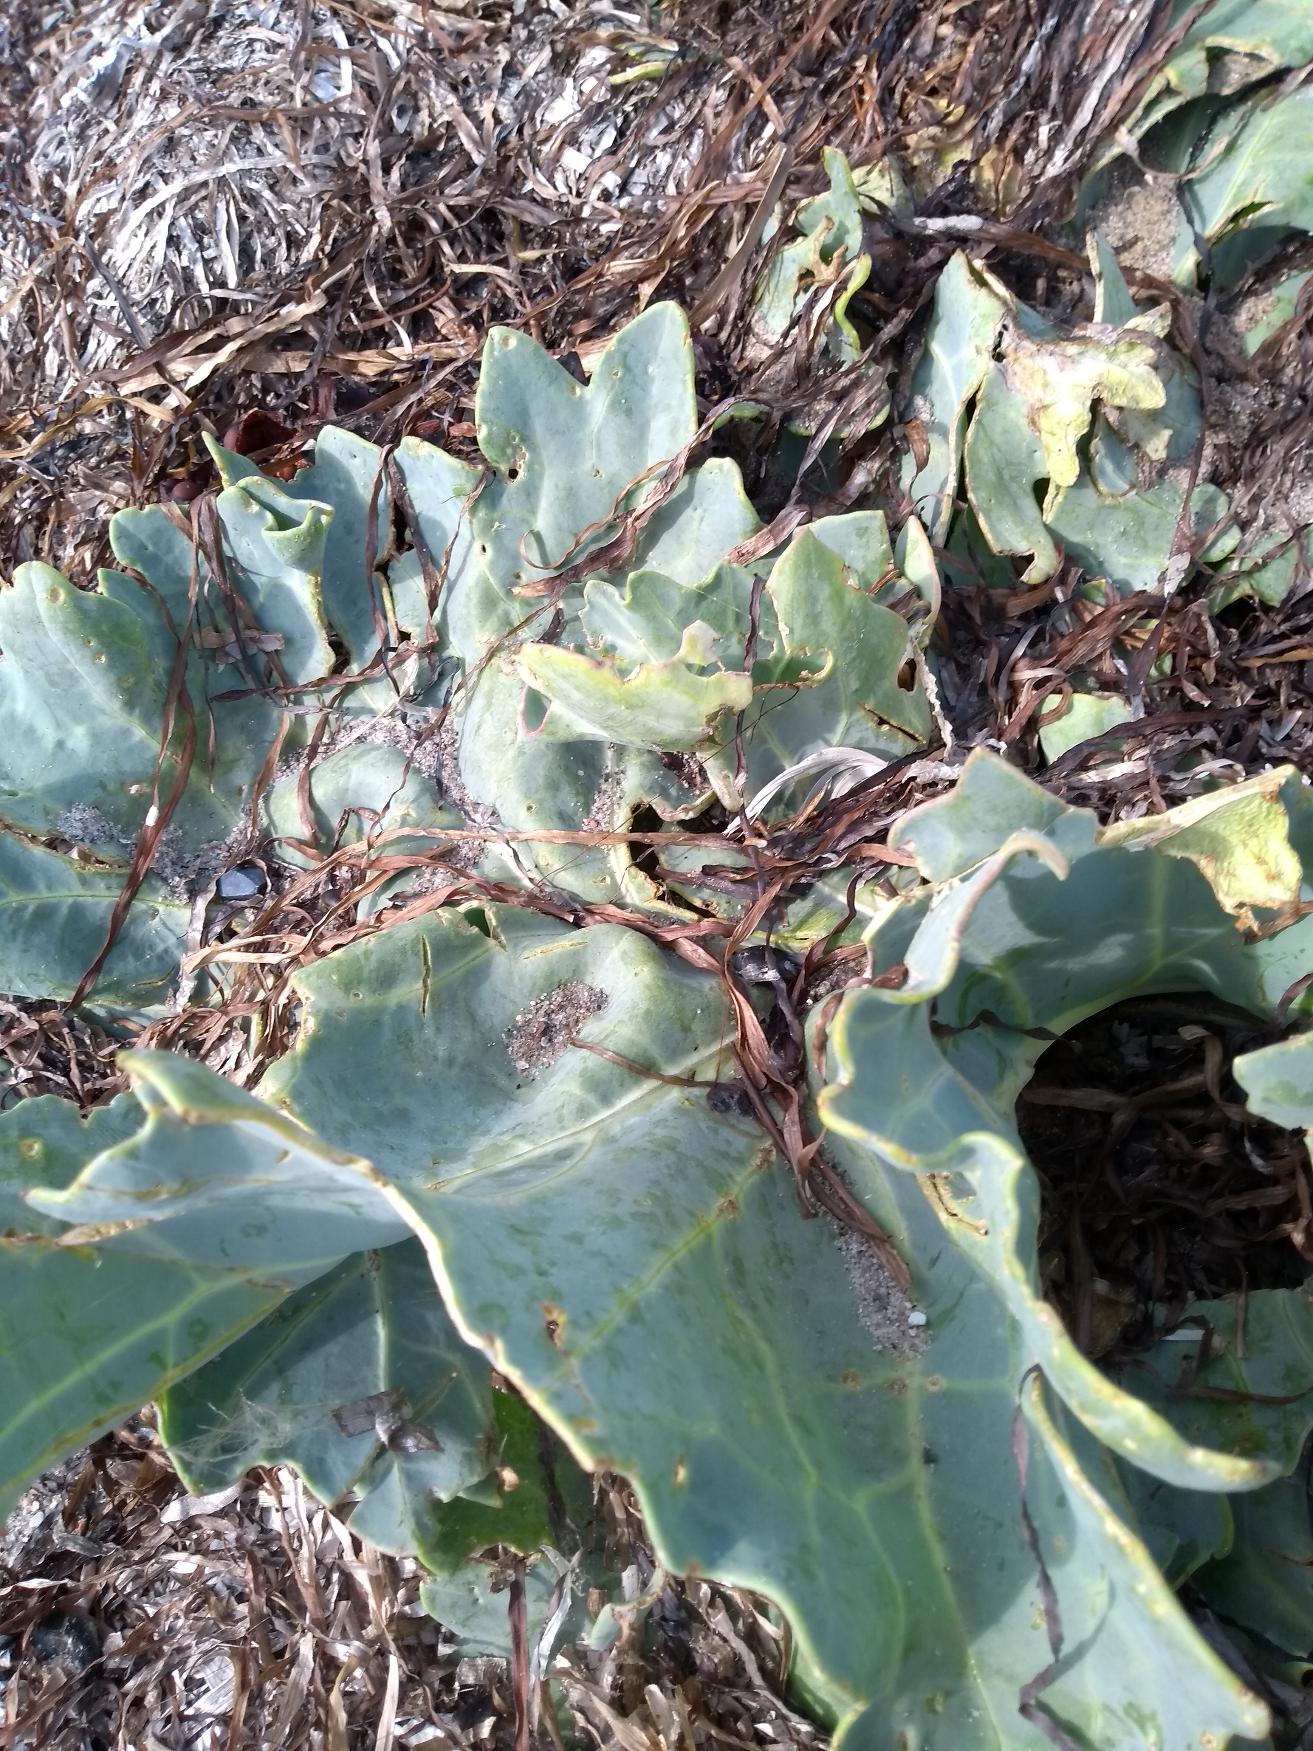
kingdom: Plantae
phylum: Tracheophyta
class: Magnoliopsida
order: Brassicales
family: Brassicaceae
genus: Crambe
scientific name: Crambe maritima
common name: Strandkål
